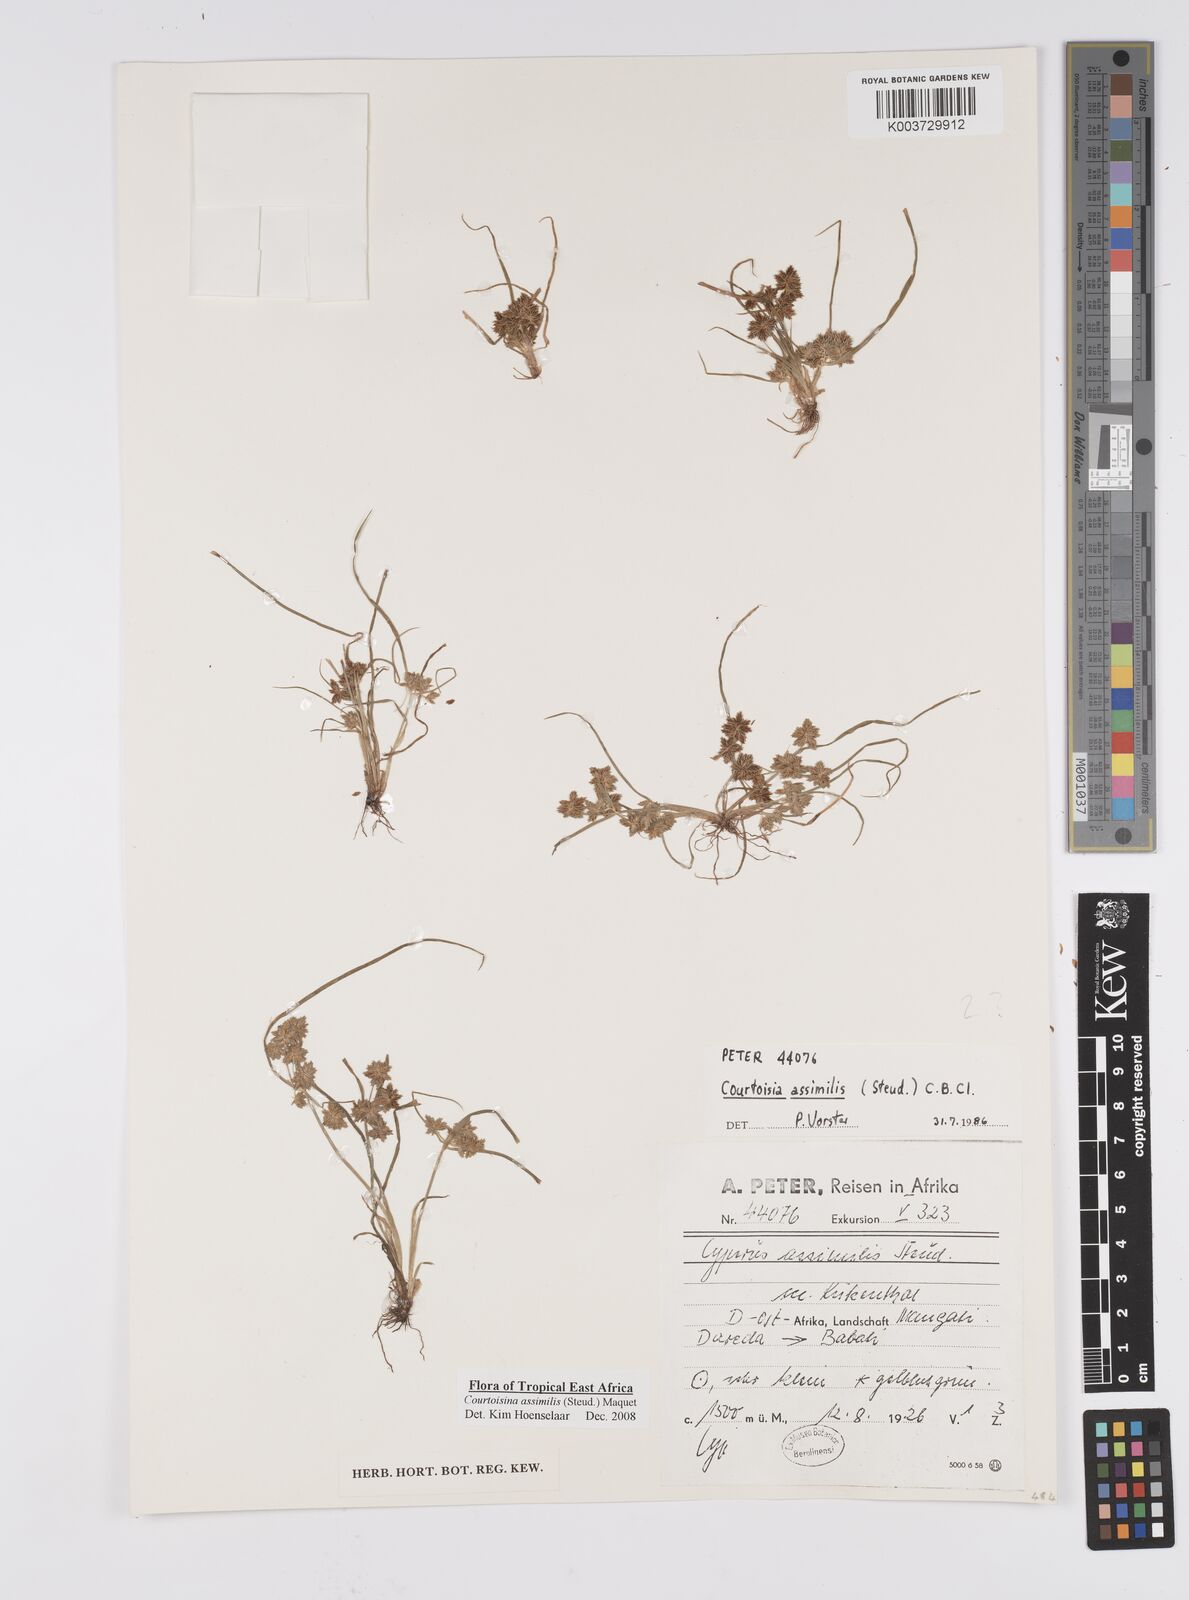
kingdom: Plantae
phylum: Tracheophyta
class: Liliopsida
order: Poales
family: Cyperaceae
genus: Cyperus
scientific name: Cyperus assimilis
